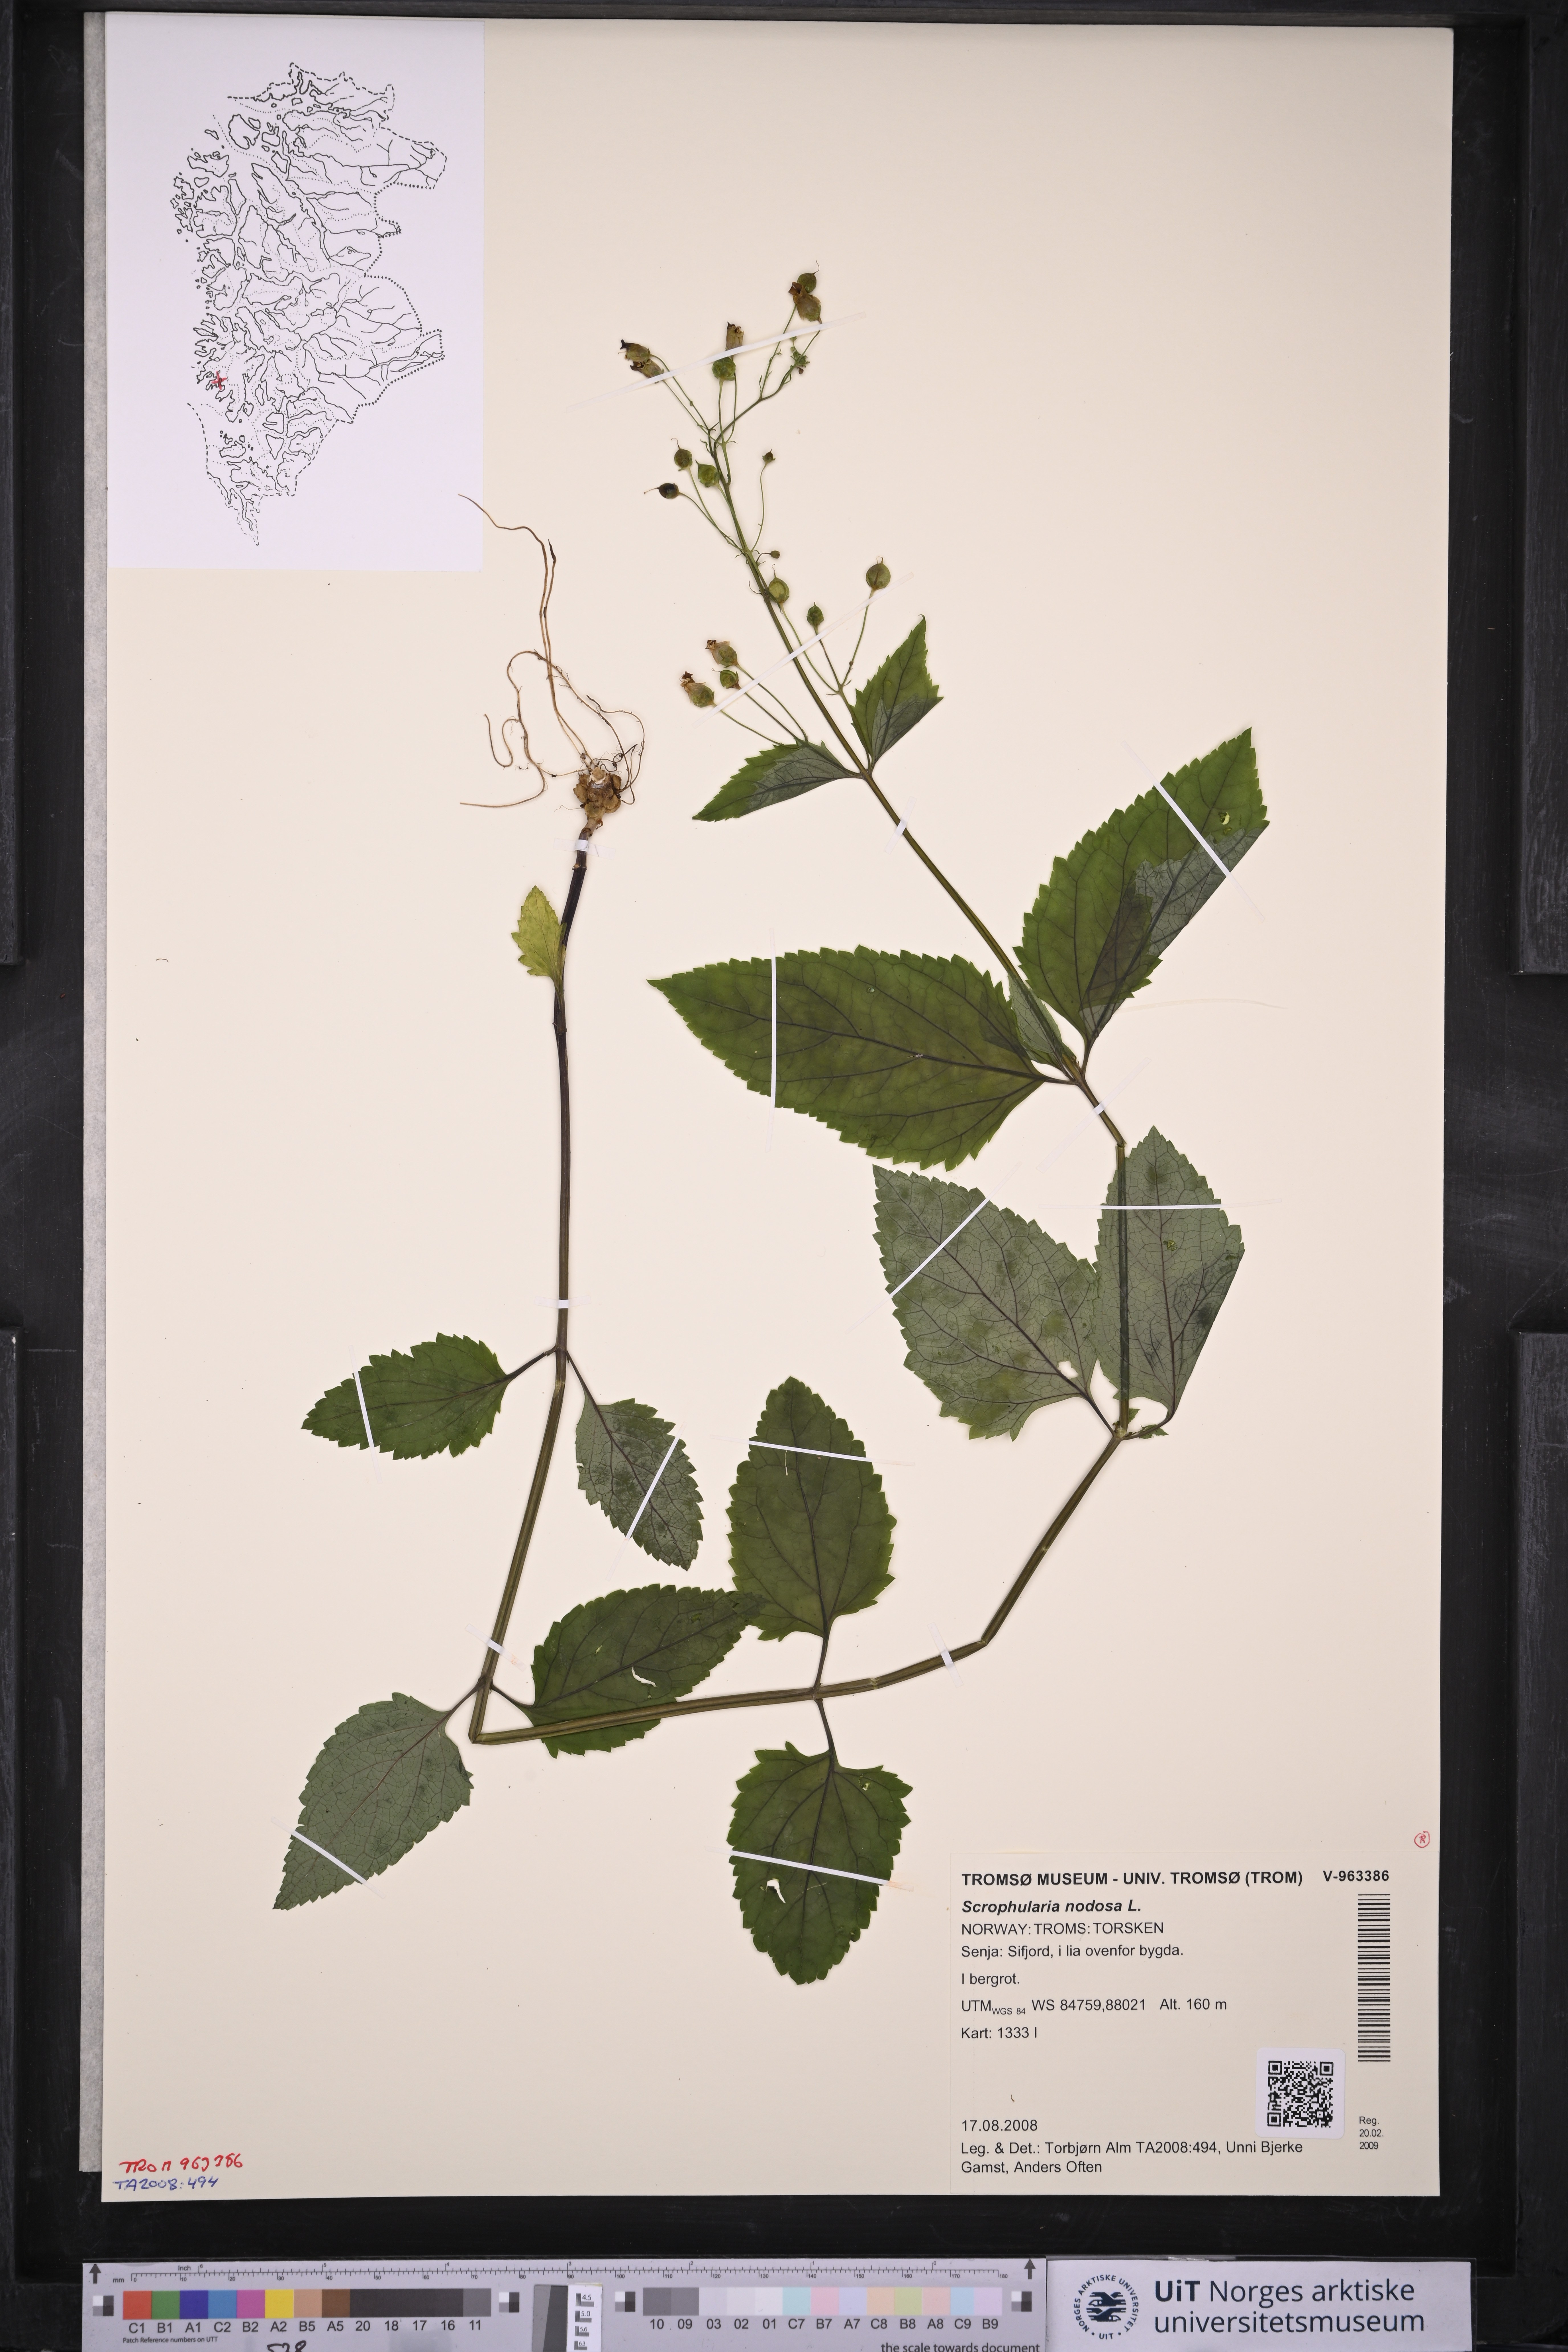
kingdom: Plantae
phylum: Tracheophyta
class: Magnoliopsida
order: Lamiales
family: Scrophulariaceae
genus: Scrophularia
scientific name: Scrophularia nodosa
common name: Common figwort
